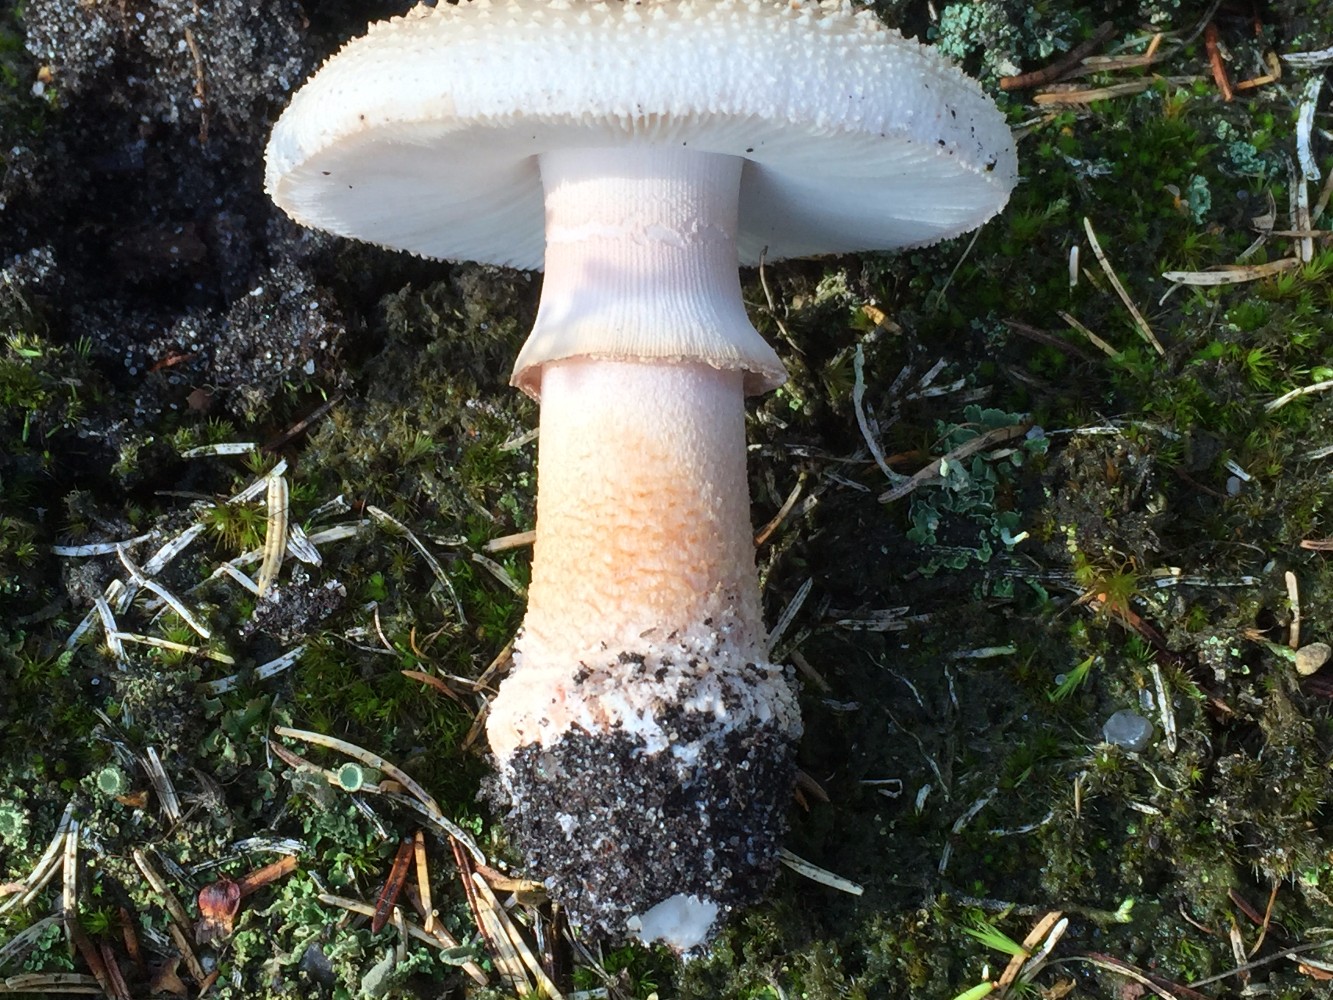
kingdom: Fungi
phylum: Basidiomycota
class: Agaricomycetes
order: Agaricales
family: Amanitaceae
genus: Amanita
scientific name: Amanita rubescens
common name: rødmende fluesvamp
